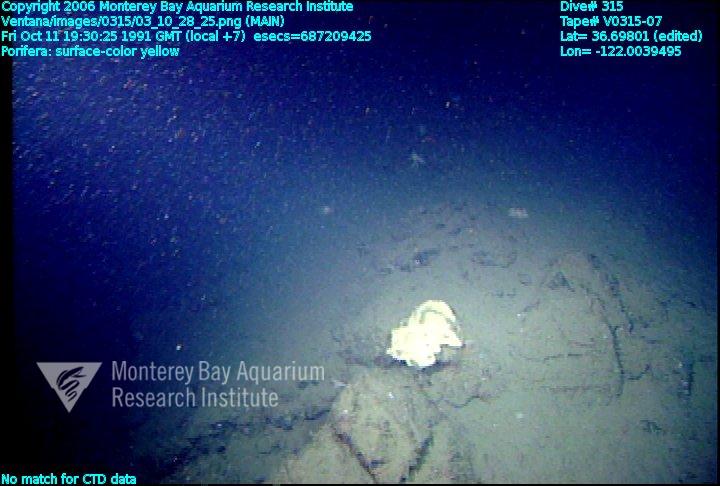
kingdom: Animalia
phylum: Porifera
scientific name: Porifera
